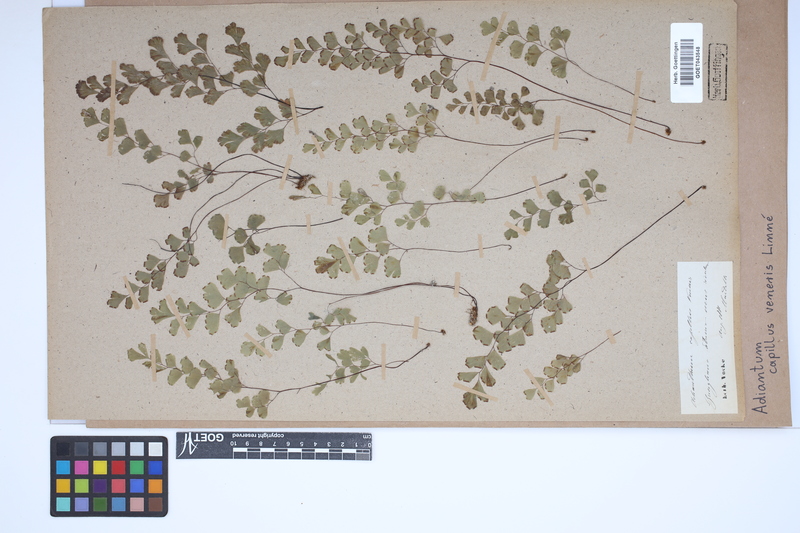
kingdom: Plantae
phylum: Tracheophyta
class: Polypodiopsida
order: Polypodiales
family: Pteridaceae
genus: Adiantum
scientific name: Adiantum capillus-veneris
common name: Maidenhair fern
